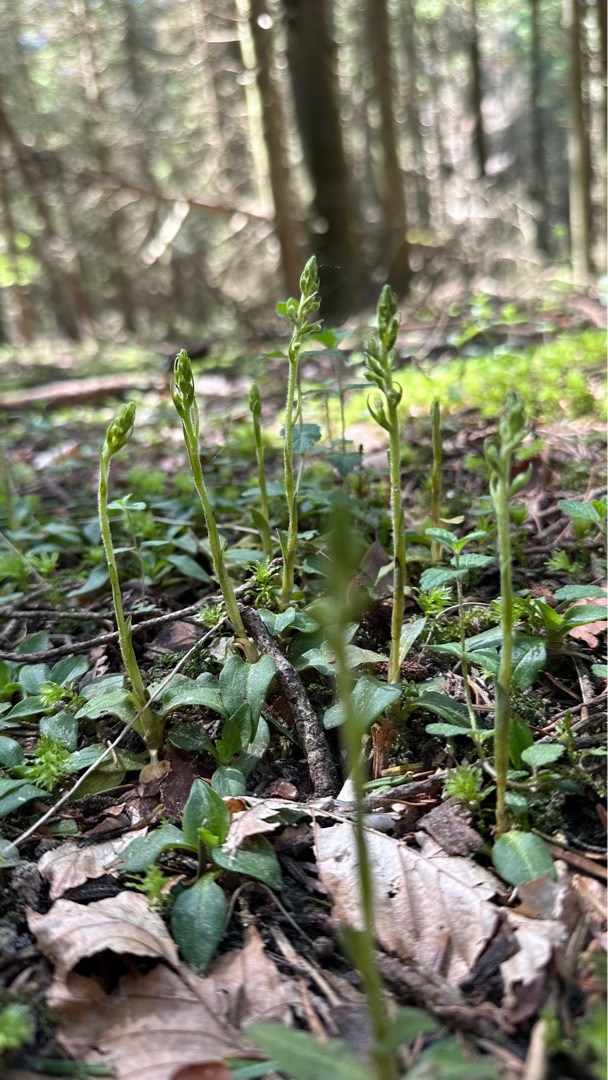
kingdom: Plantae
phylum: Tracheophyta
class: Liliopsida
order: Asparagales
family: Orchidaceae
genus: Goodyera
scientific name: Goodyera repens
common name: Knærod
